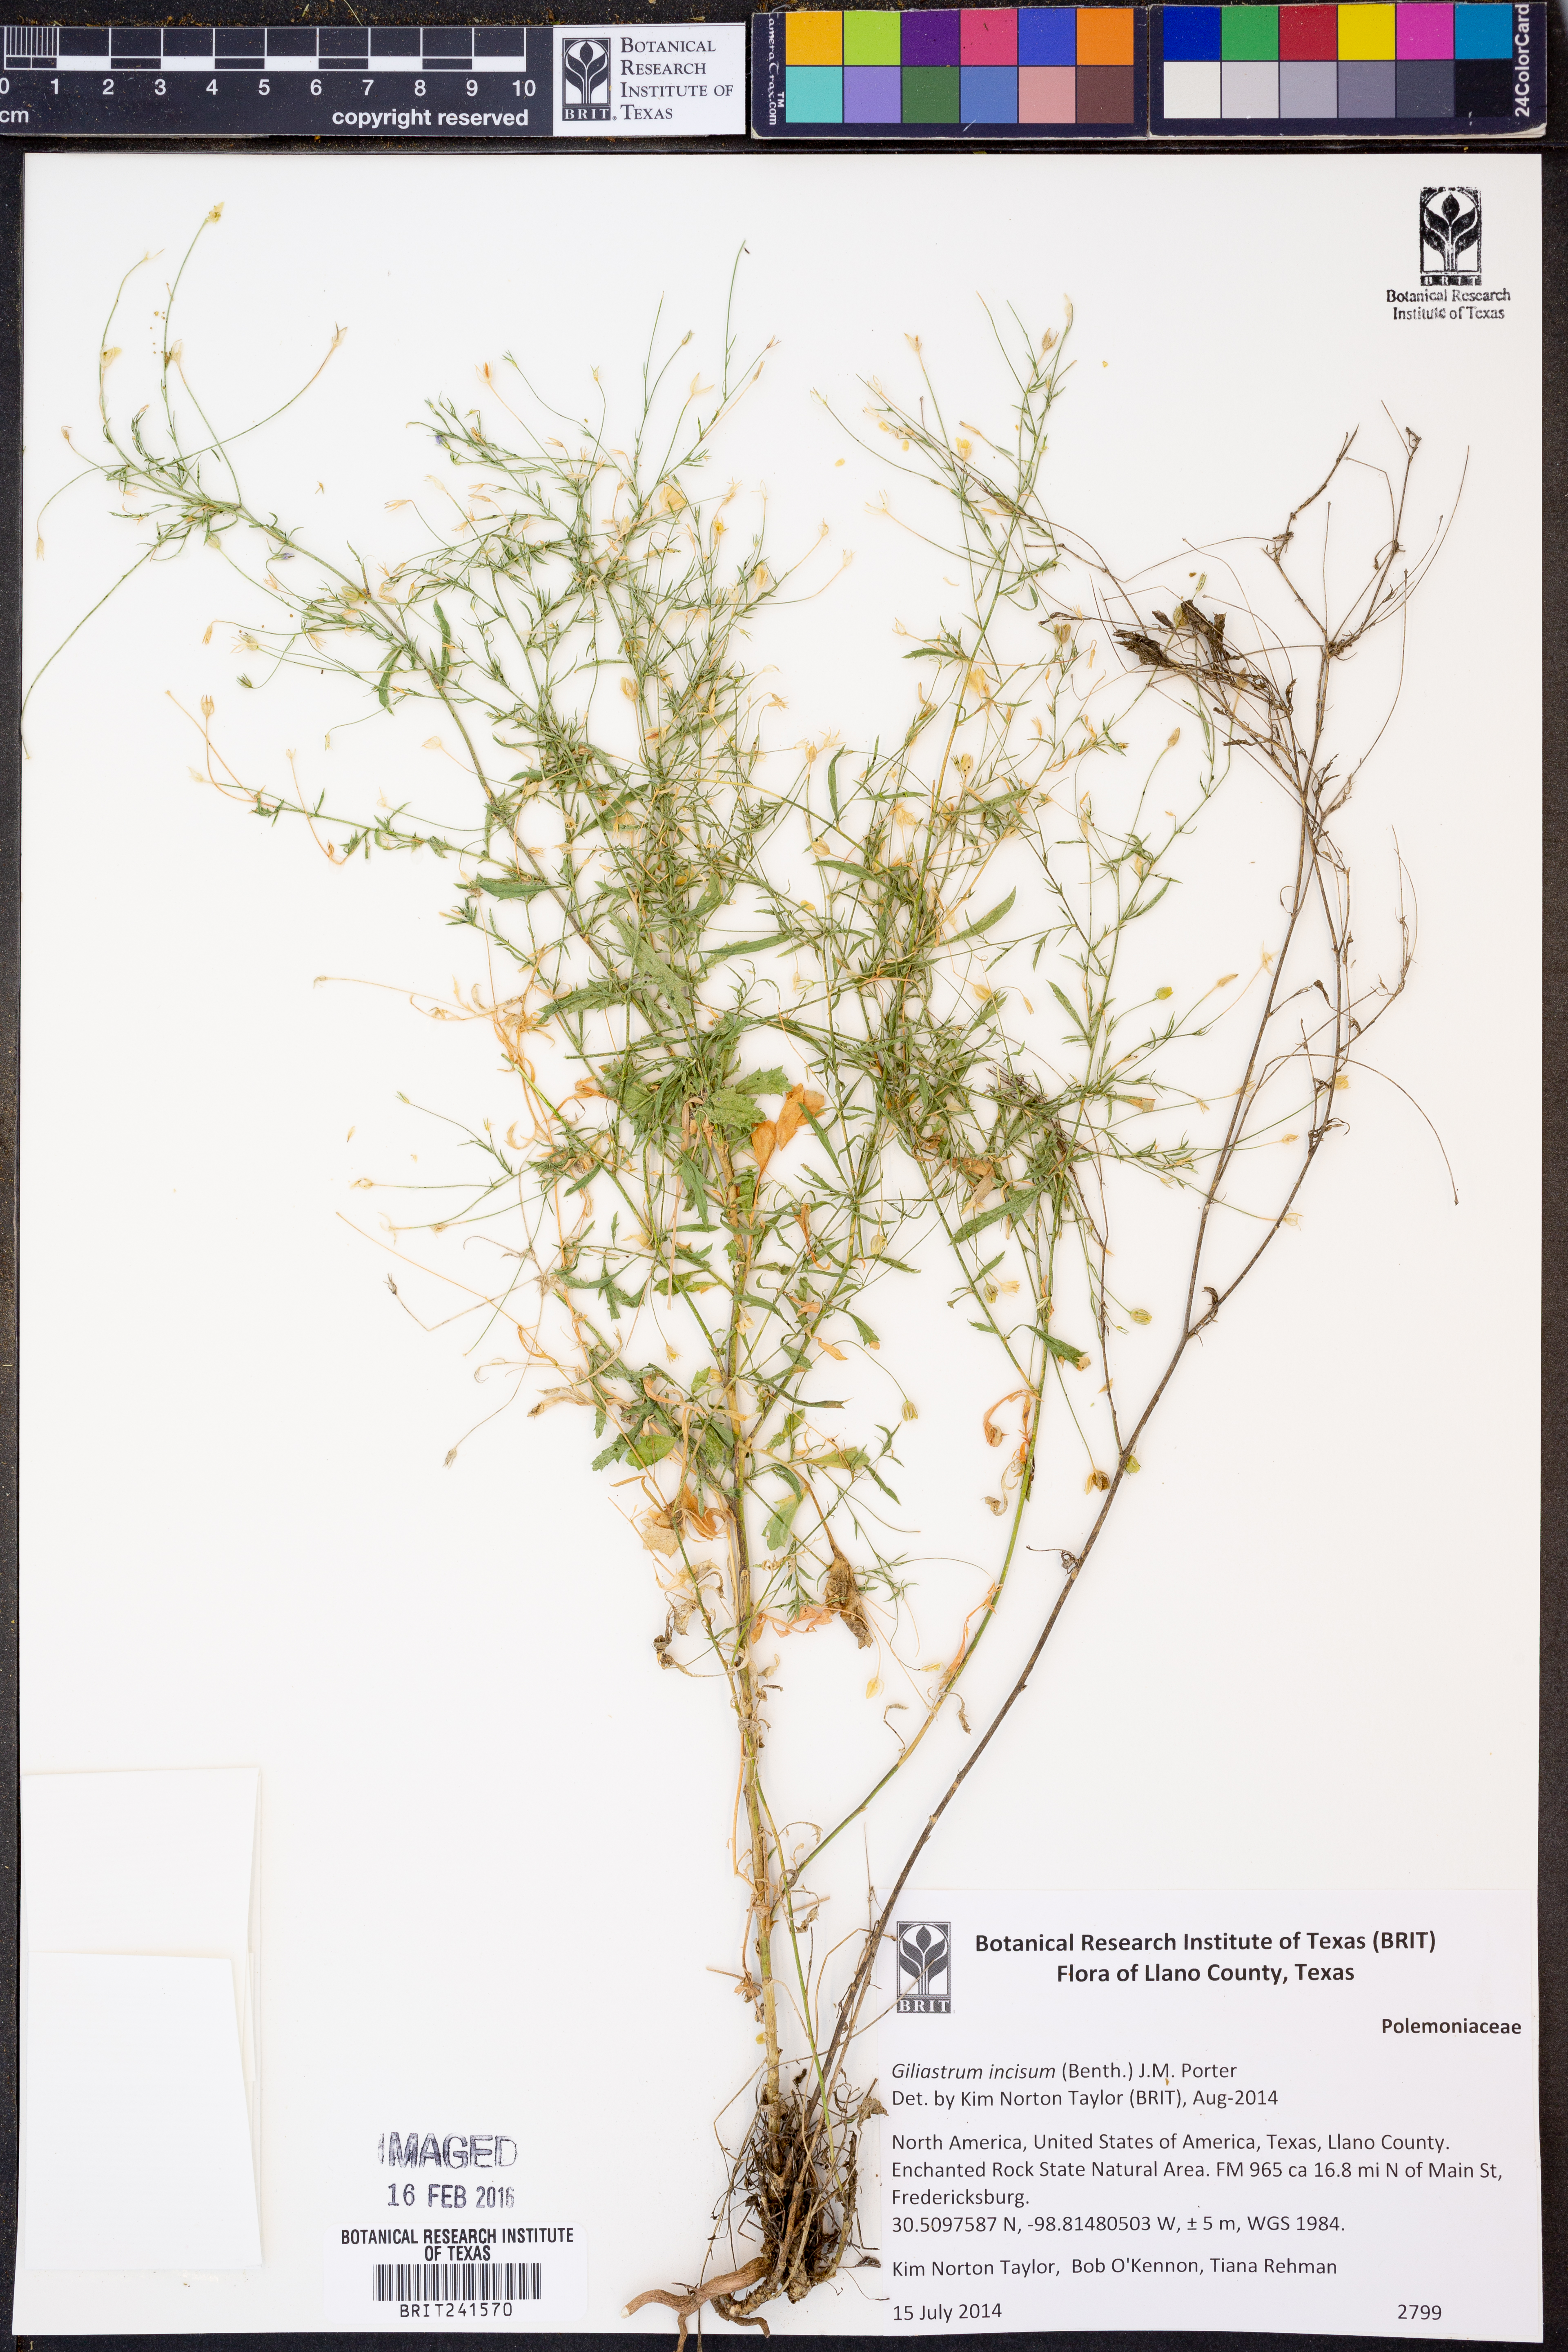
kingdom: Plantae
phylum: Tracheophyta
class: Magnoliopsida
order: Ericales
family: Polemoniaceae
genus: Giliastrum
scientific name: Giliastrum incisum
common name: Splitleaf gilia
